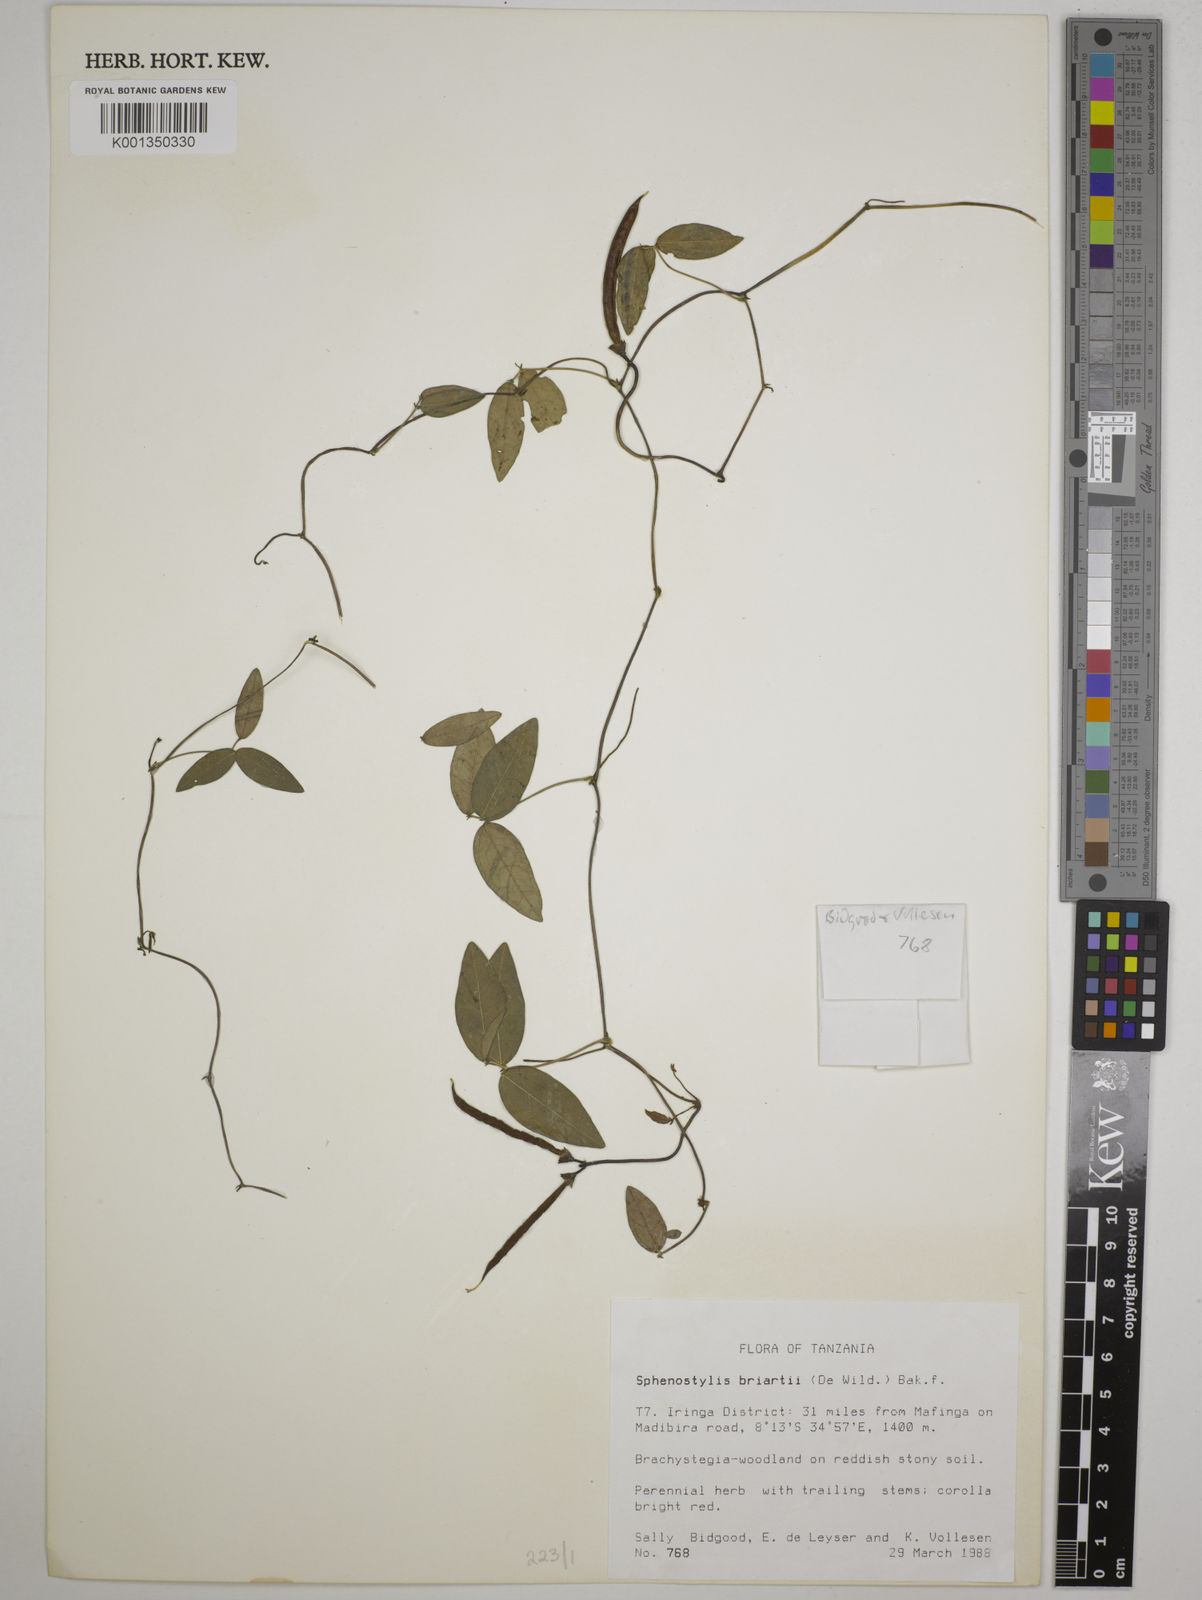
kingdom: Plantae
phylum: Tracheophyta
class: Magnoliopsida
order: Fabales
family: Fabaceae
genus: Sphenostylis
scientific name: Sphenostylis briartii
